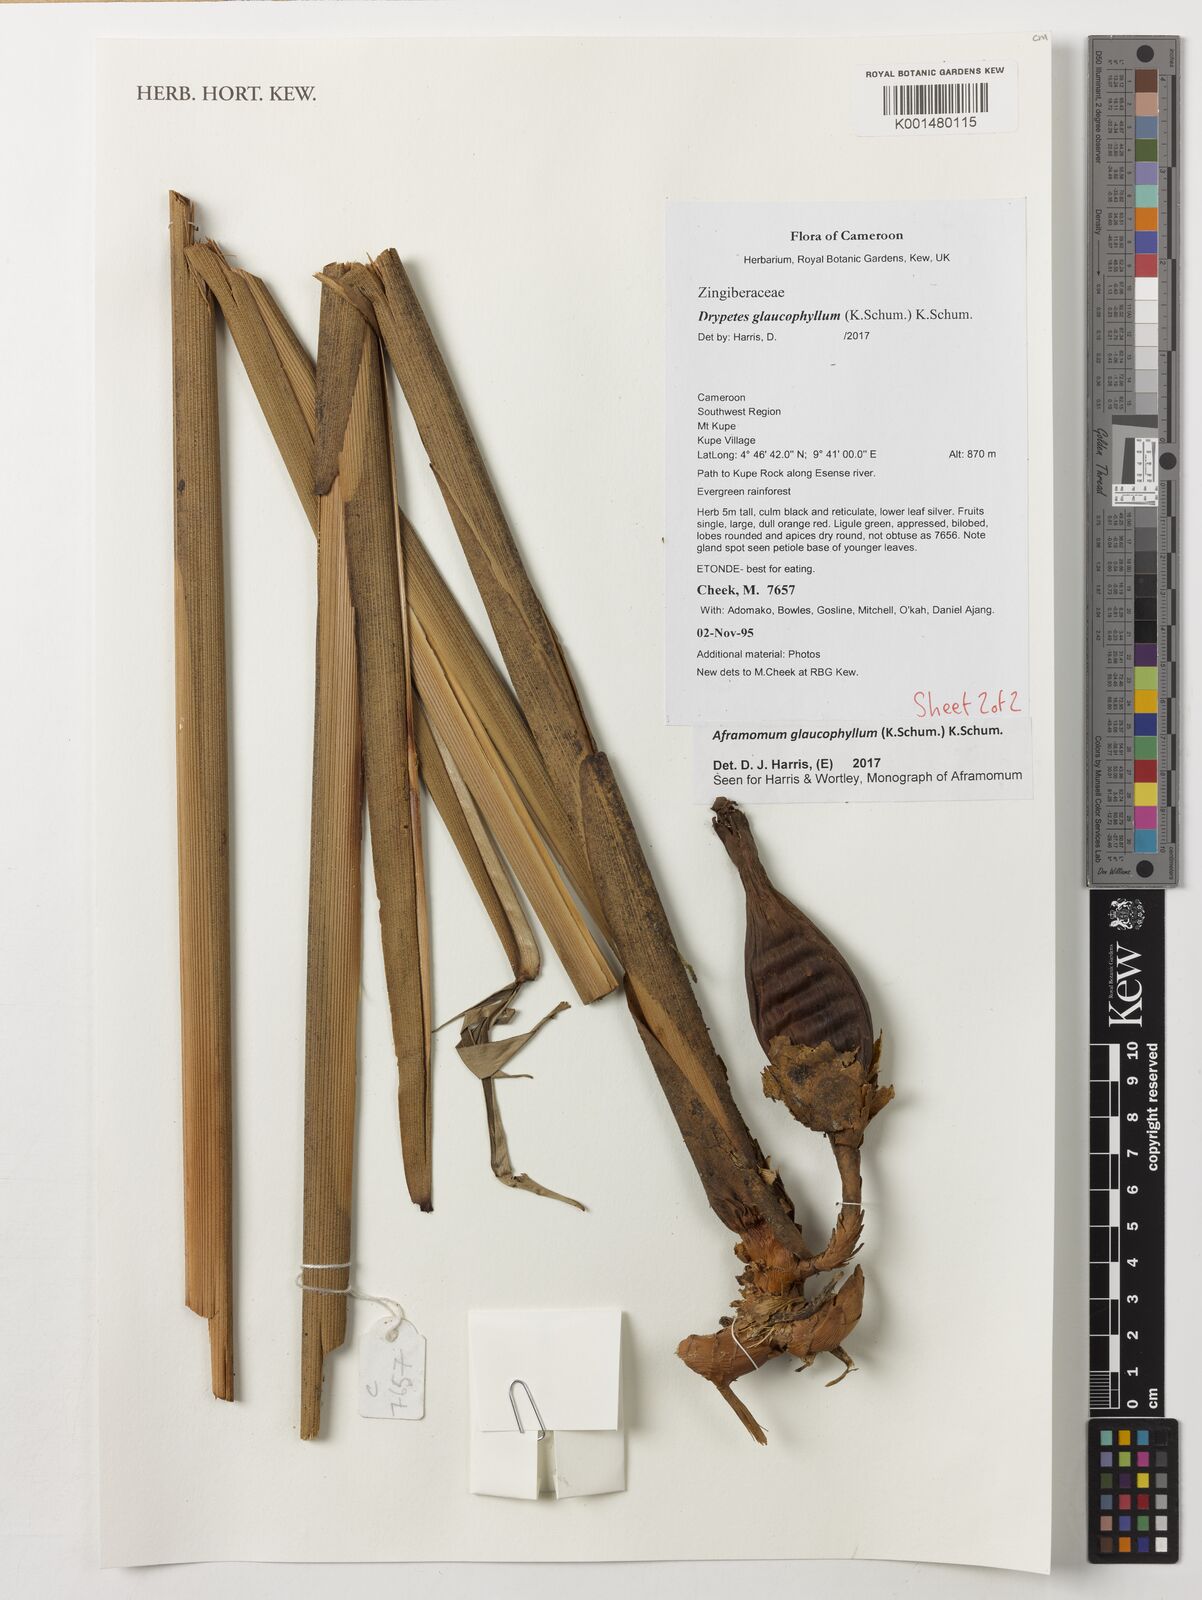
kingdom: Plantae
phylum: Tracheophyta
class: Liliopsida
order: Zingiberales
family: Zingiberaceae
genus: Aframomum
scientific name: Aframomum glaucophyllum
